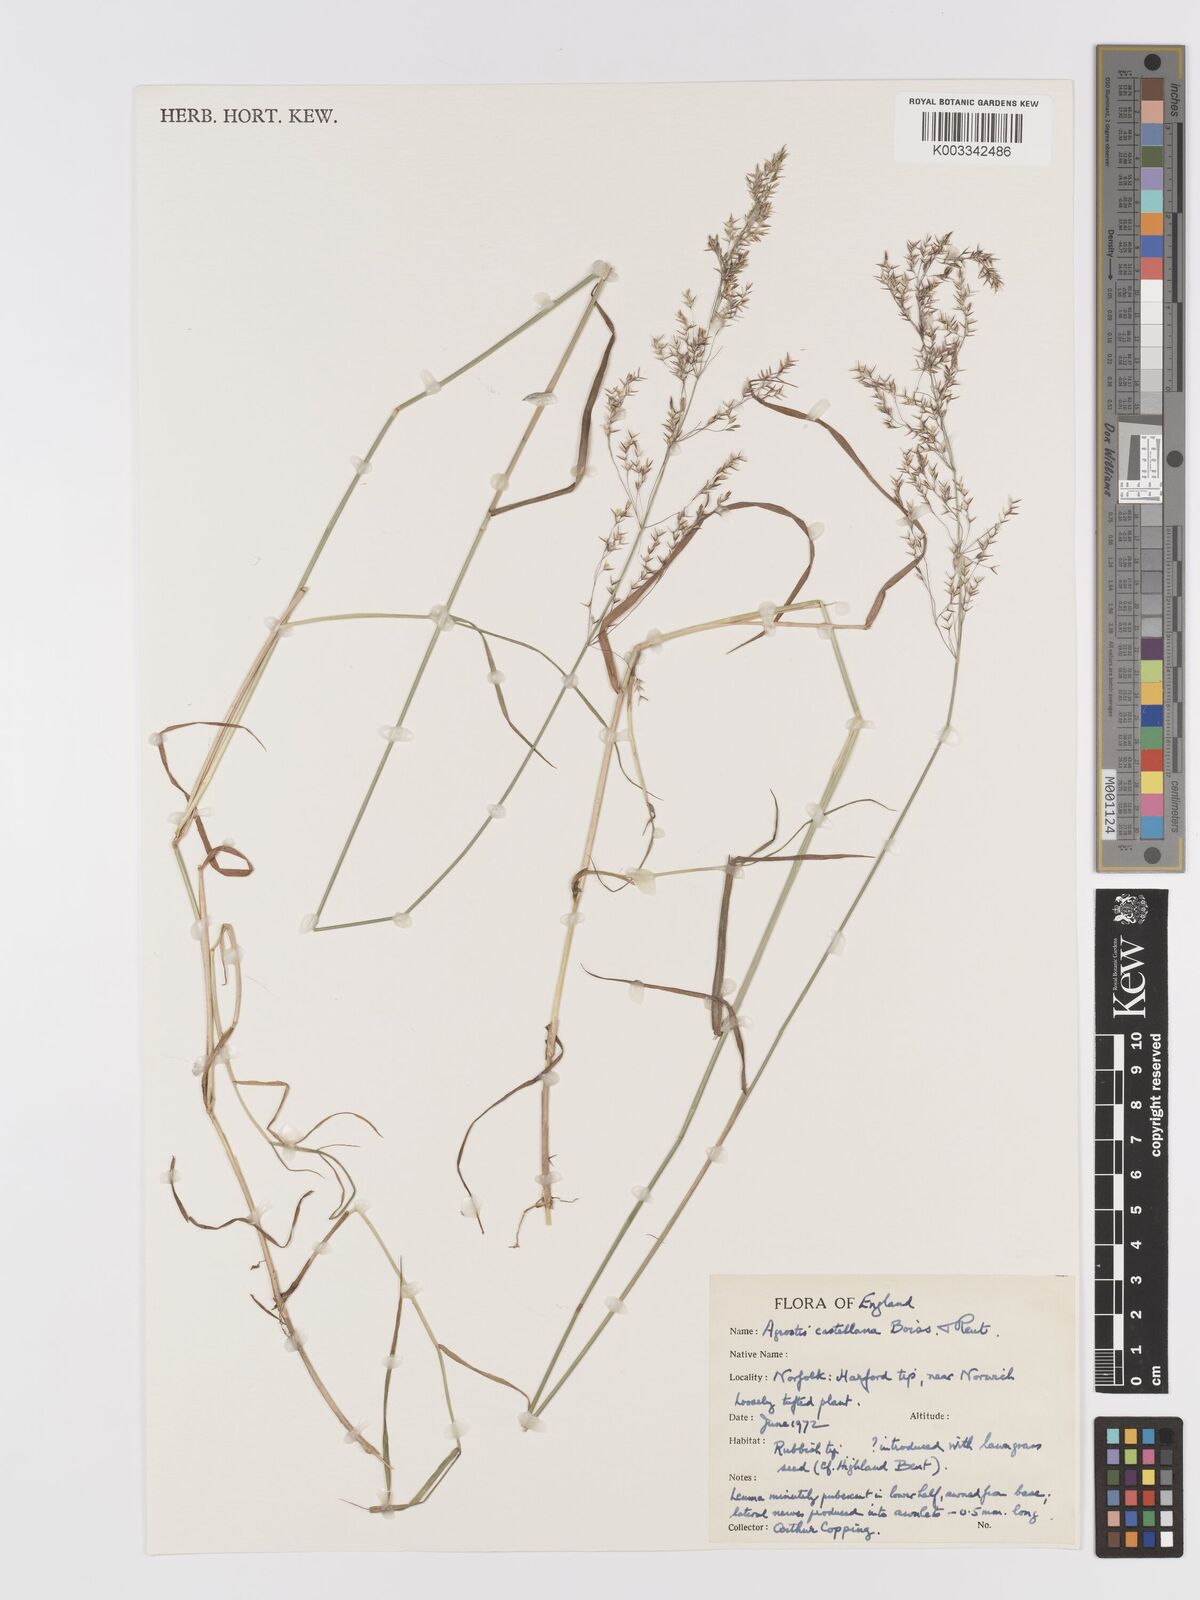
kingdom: Plantae
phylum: Tracheophyta
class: Liliopsida
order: Poales
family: Poaceae
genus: Agrostis
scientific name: Agrostis castellana
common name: Highland bent
